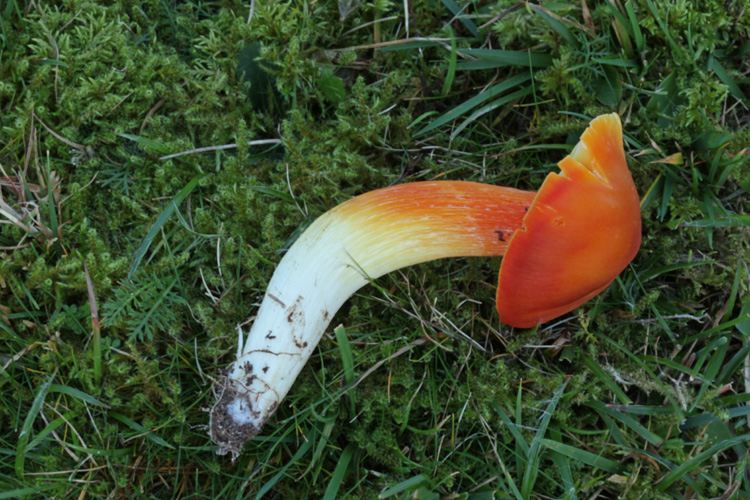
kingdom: Fungi
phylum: Basidiomycota
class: Agaricomycetes
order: Agaricales
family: Hygrophoraceae
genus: Hygrocybe
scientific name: Hygrocybe punicea
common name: skarlagen-vokshat
